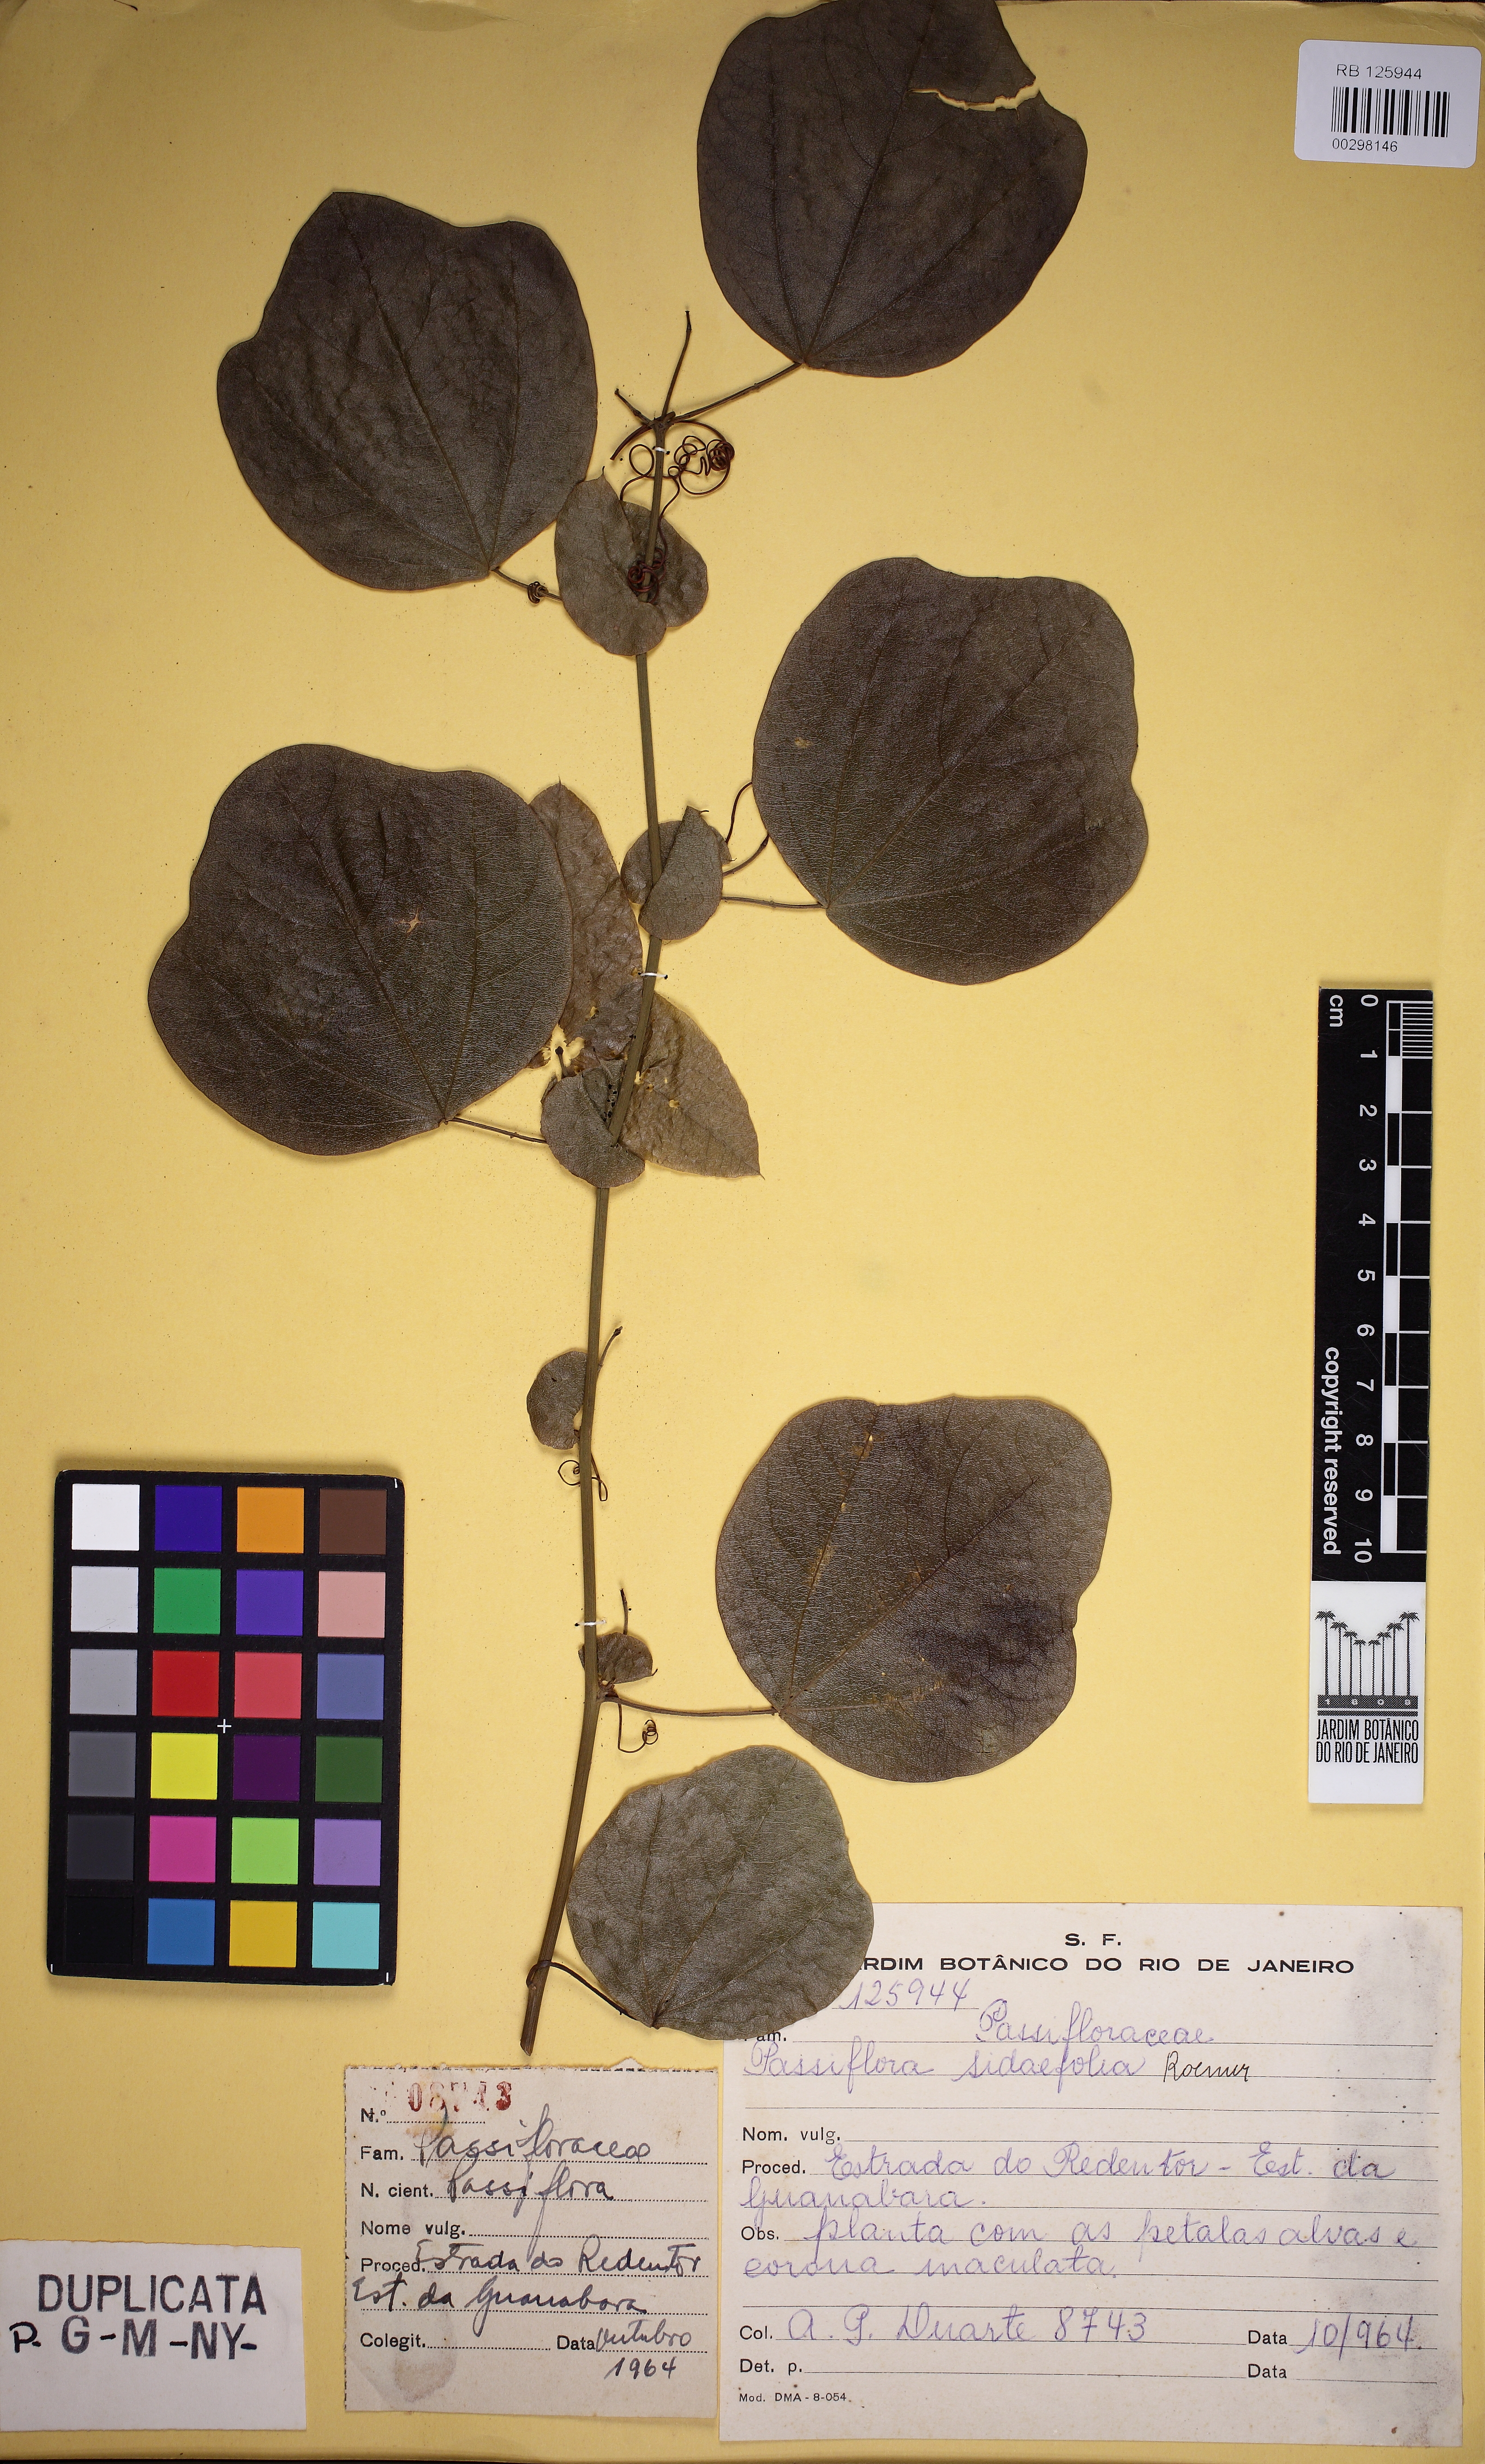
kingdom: Plantae
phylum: Tracheophyta
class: Magnoliopsida
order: Malpighiales
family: Passifloraceae
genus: Passiflora
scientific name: Passiflora tetraden
